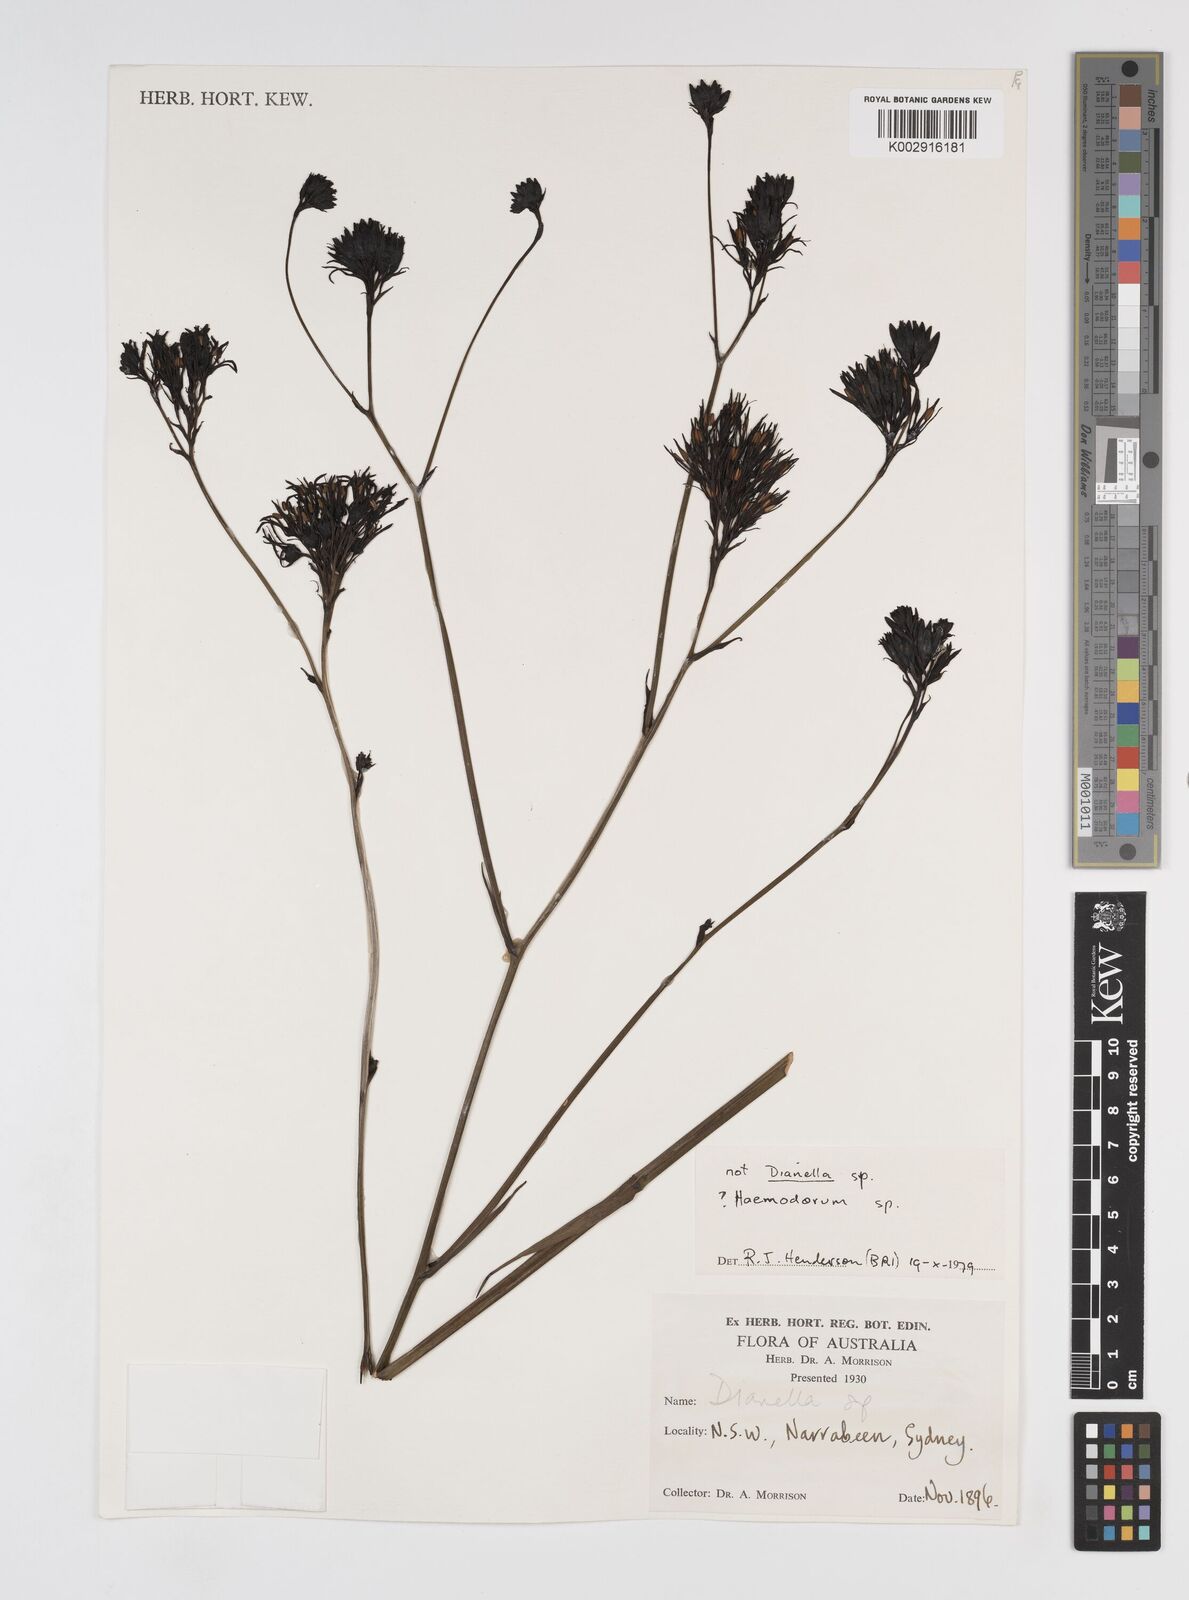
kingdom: Plantae
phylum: Tracheophyta
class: Liliopsida
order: Commelinales
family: Haemodoraceae
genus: Haemodorum
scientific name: Haemodorum
